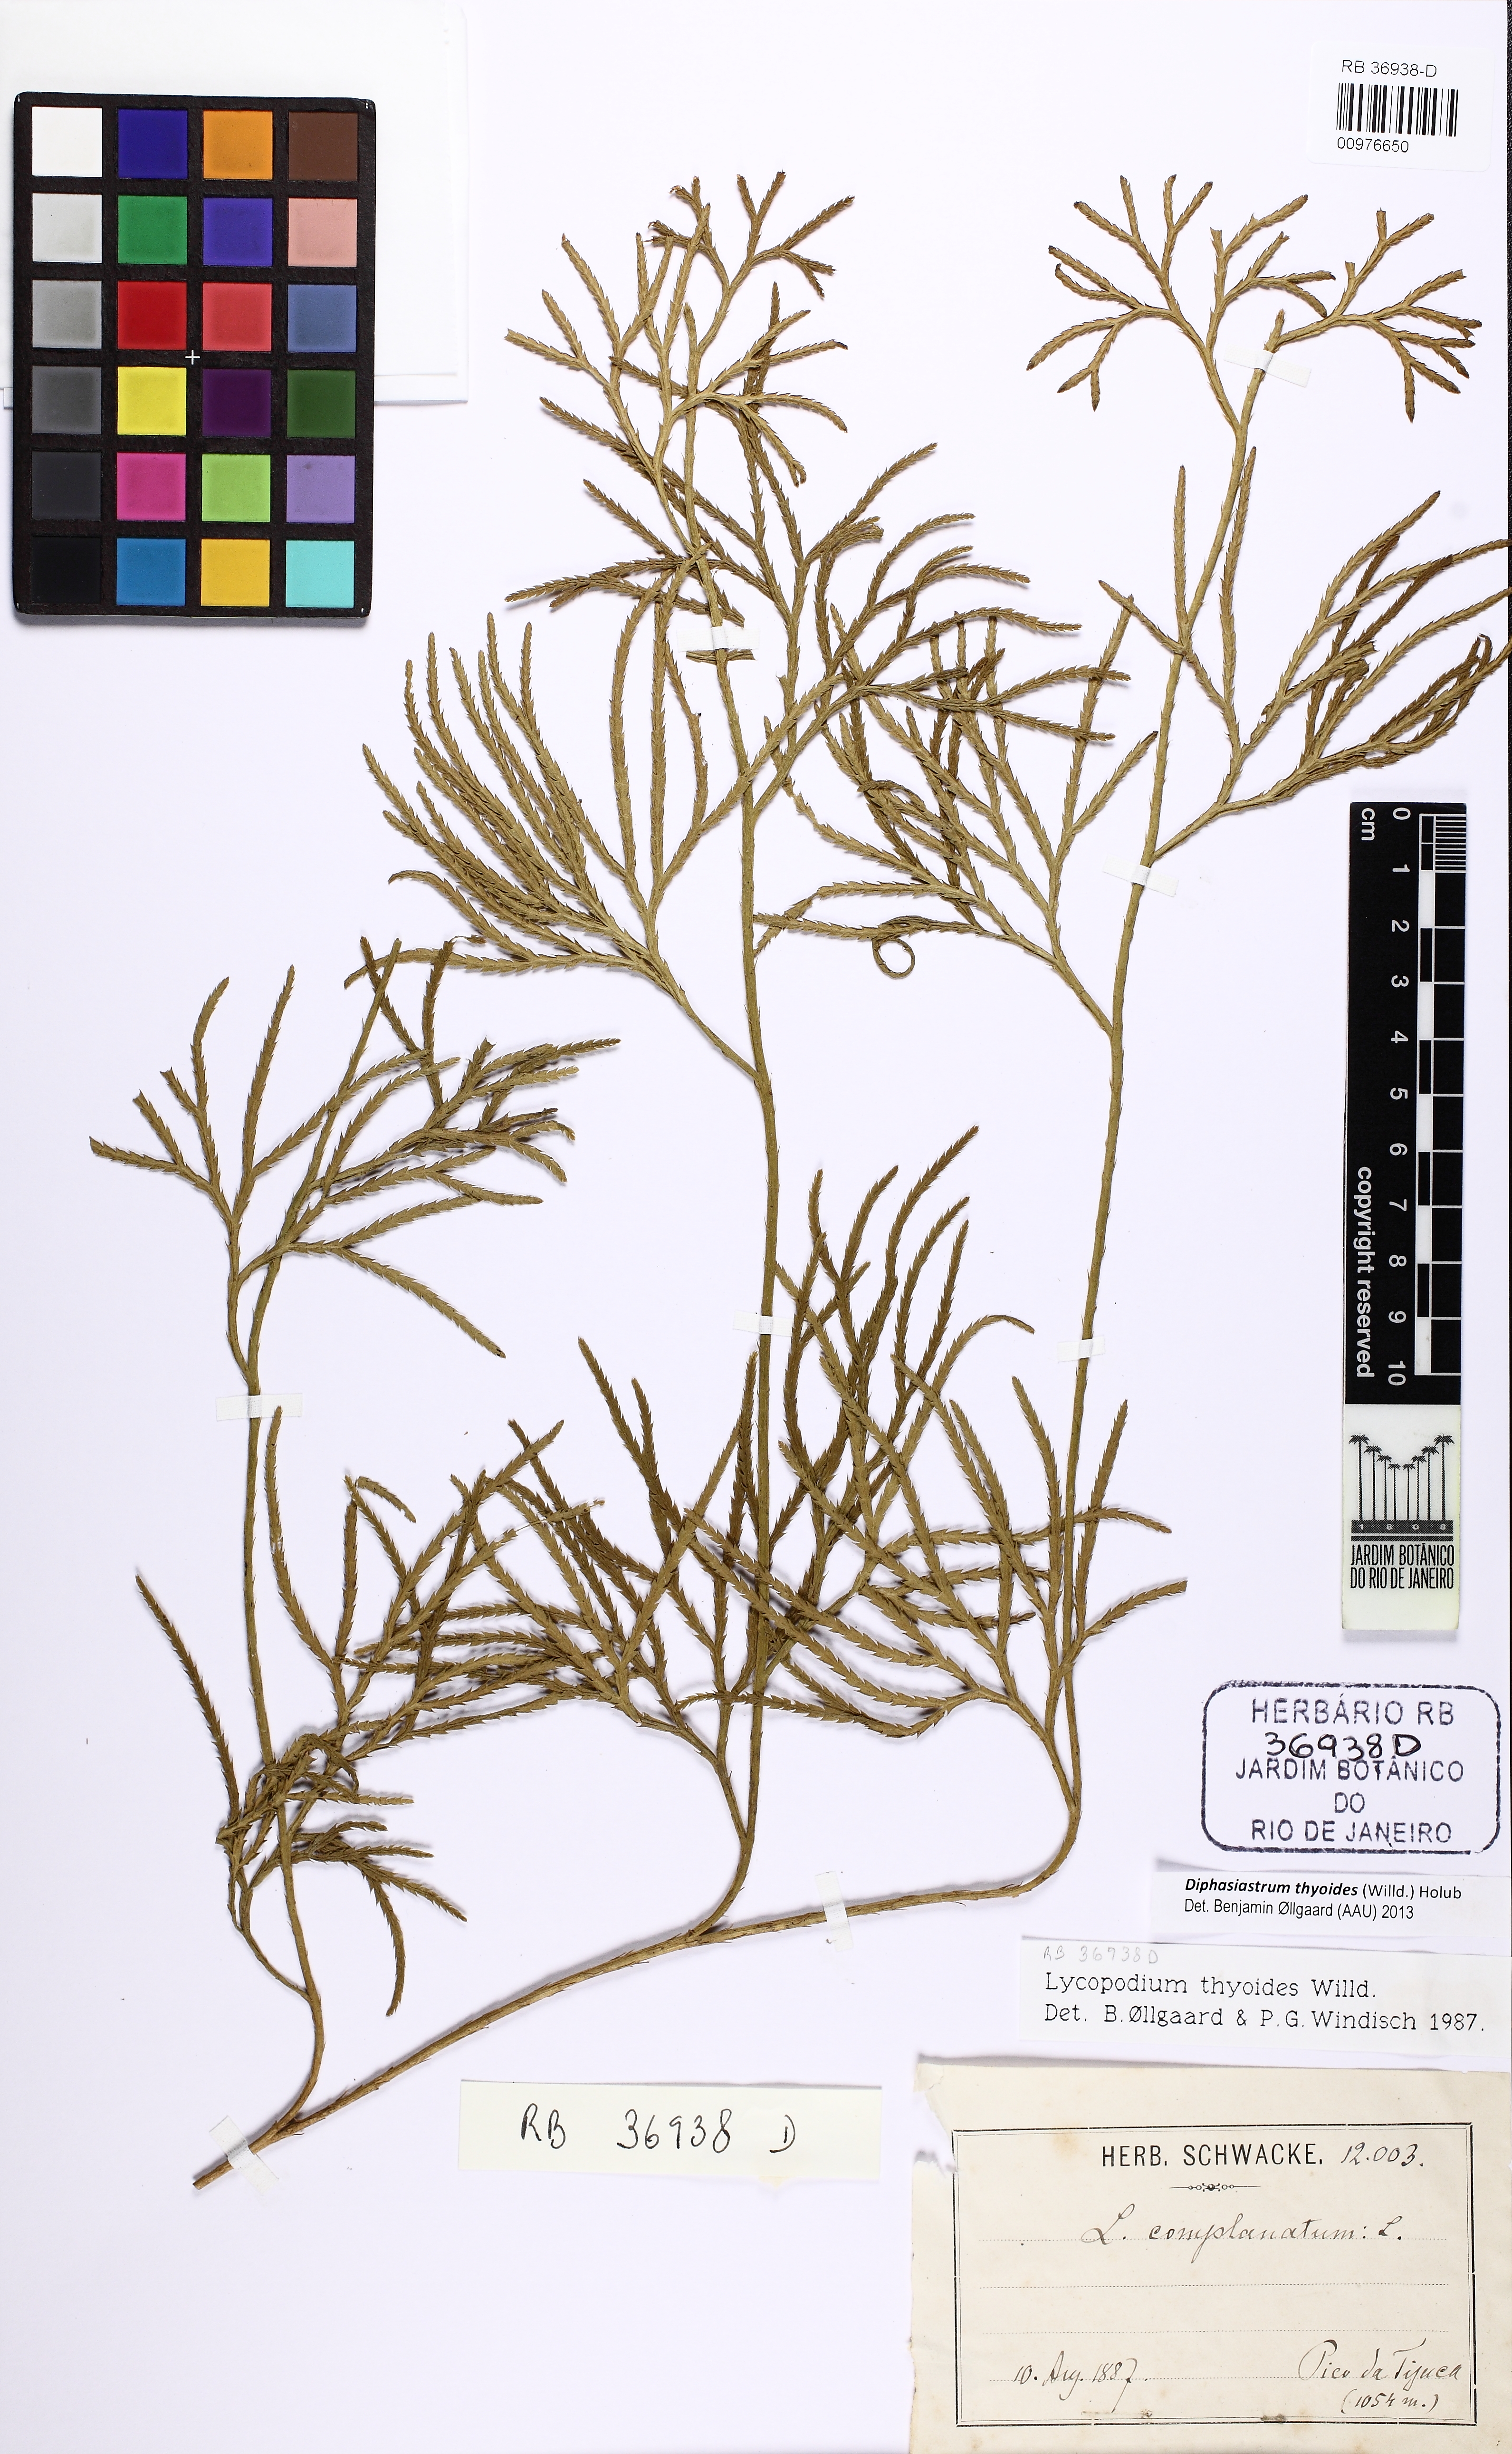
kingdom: Plantae
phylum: Tracheophyta
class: Lycopodiopsida
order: Lycopodiales
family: Lycopodiaceae
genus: Diphasiastrum
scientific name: Diphasiastrum thyoides
